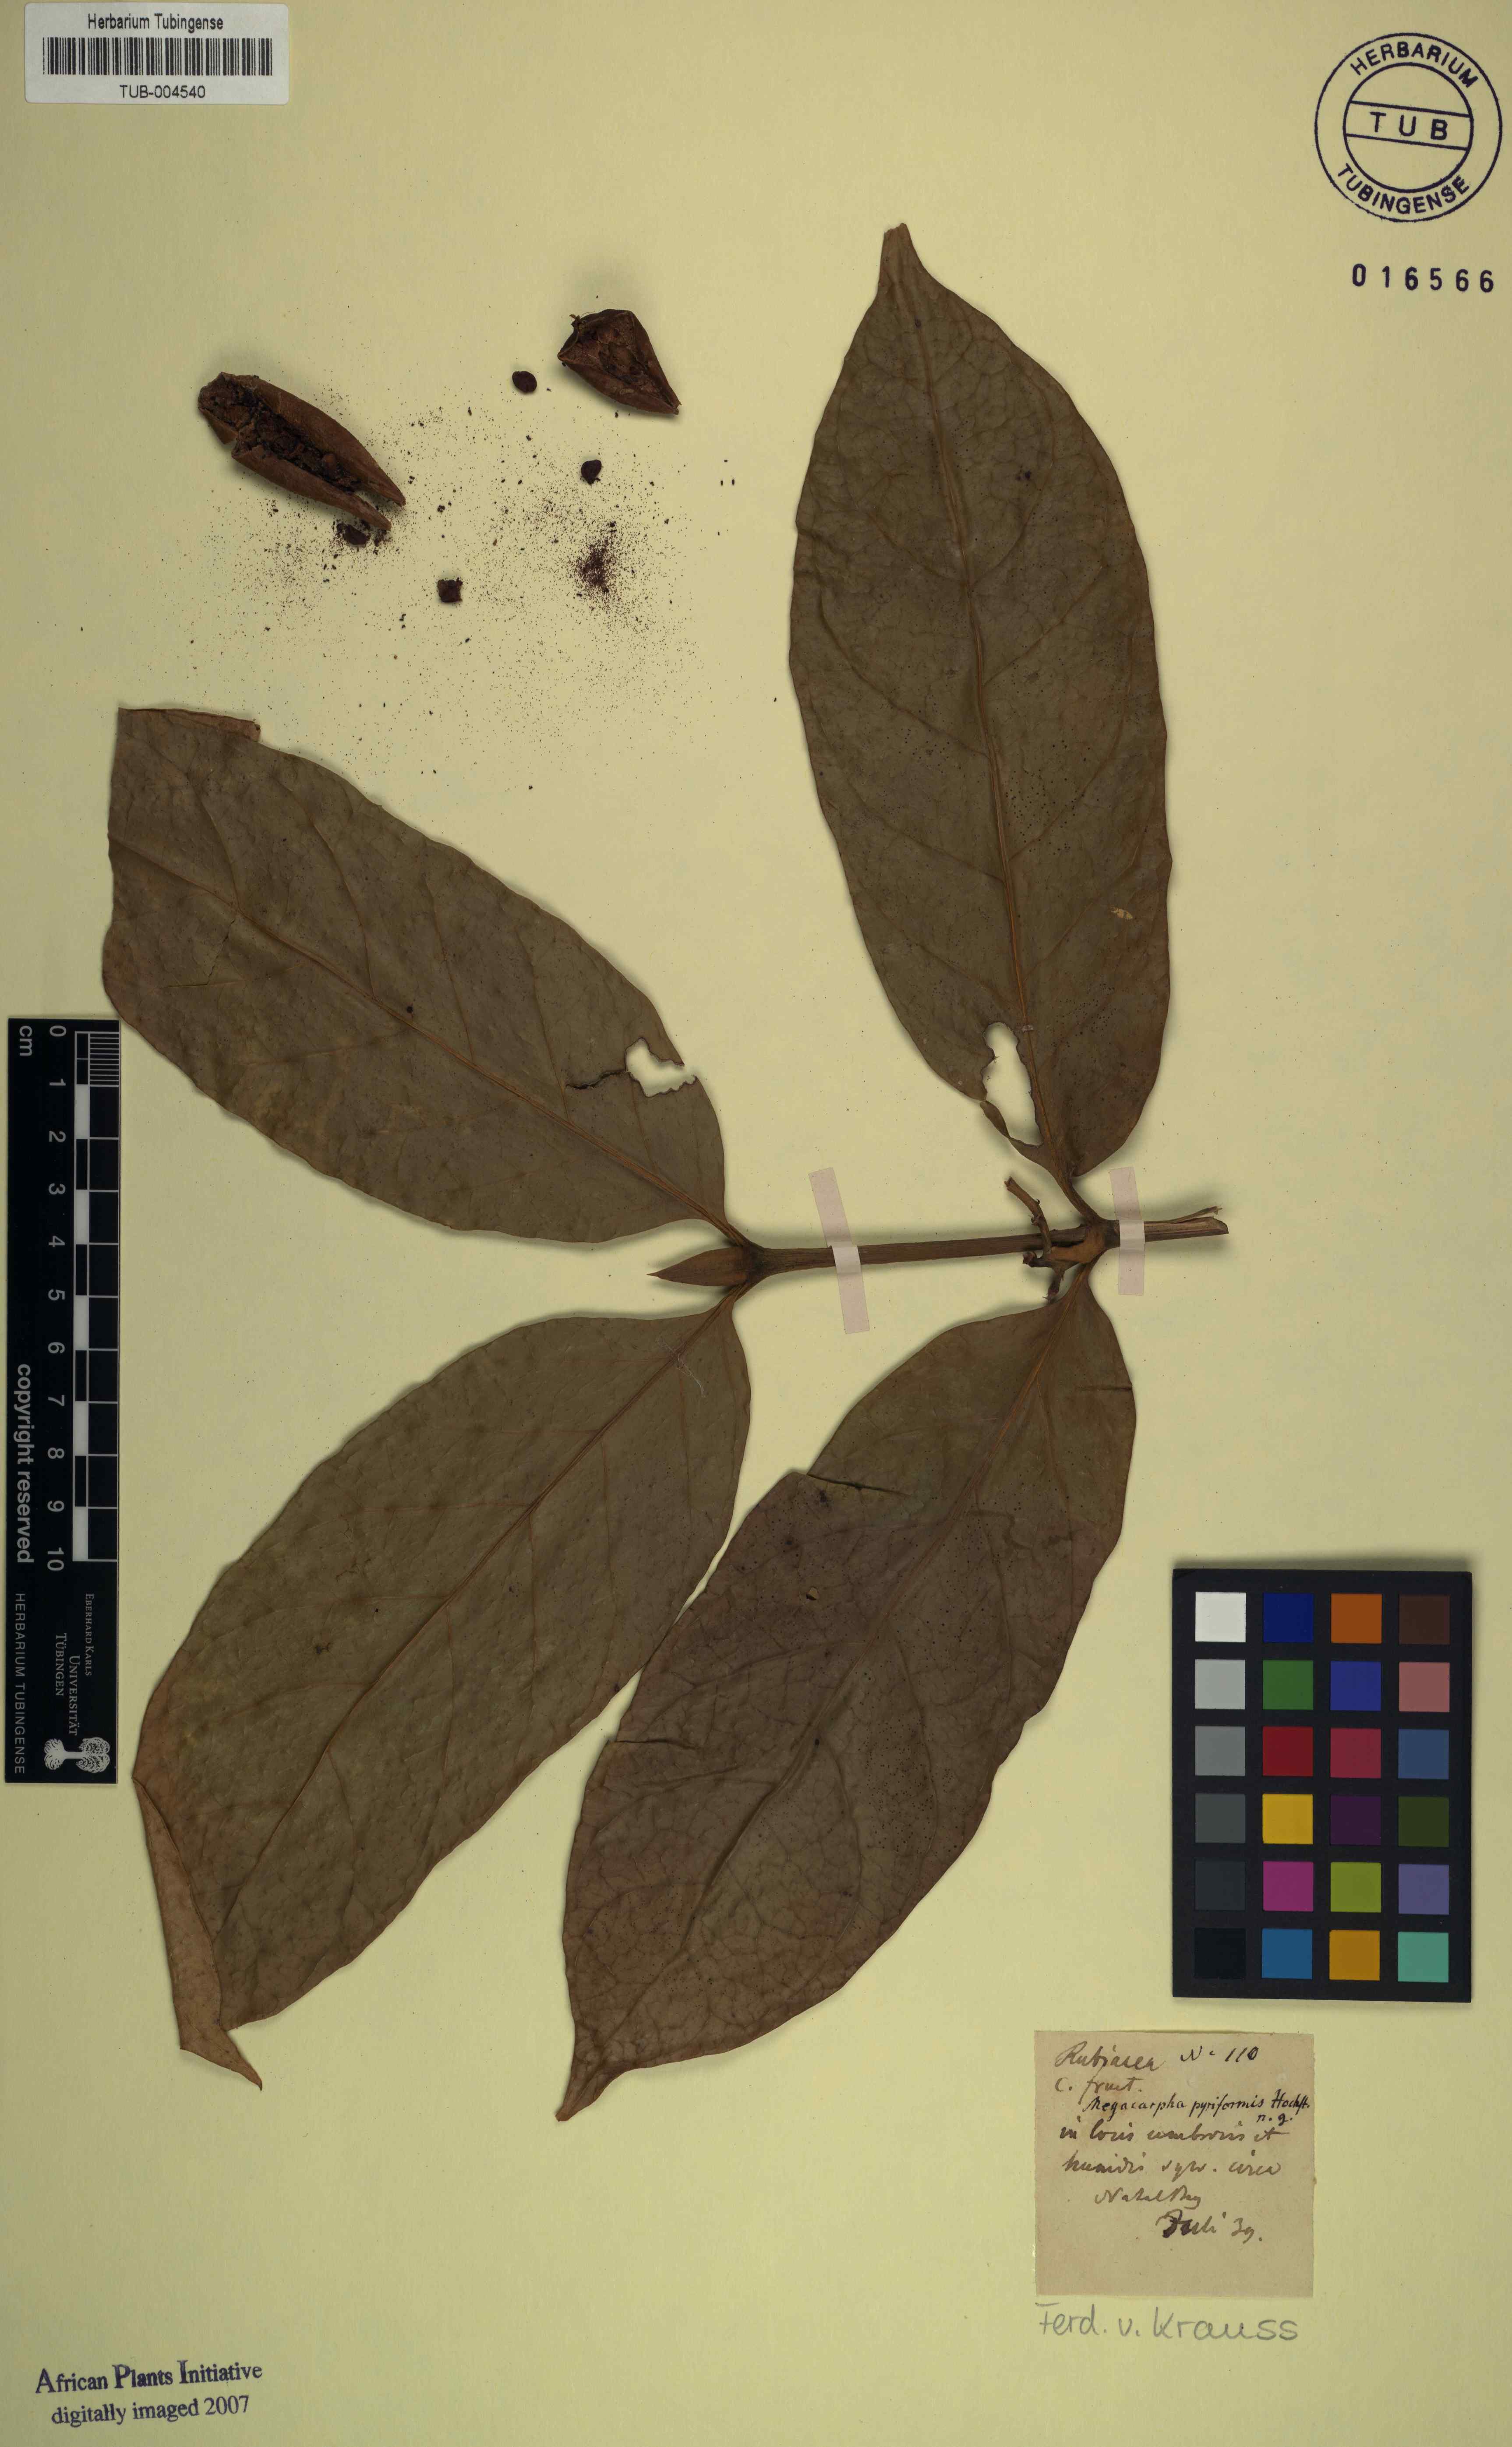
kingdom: Plantae
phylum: Tracheophyta
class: Magnoliopsida
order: Gentianales
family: Rubiaceae
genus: Oxyanthus
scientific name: Oxyanthus pyriformis
